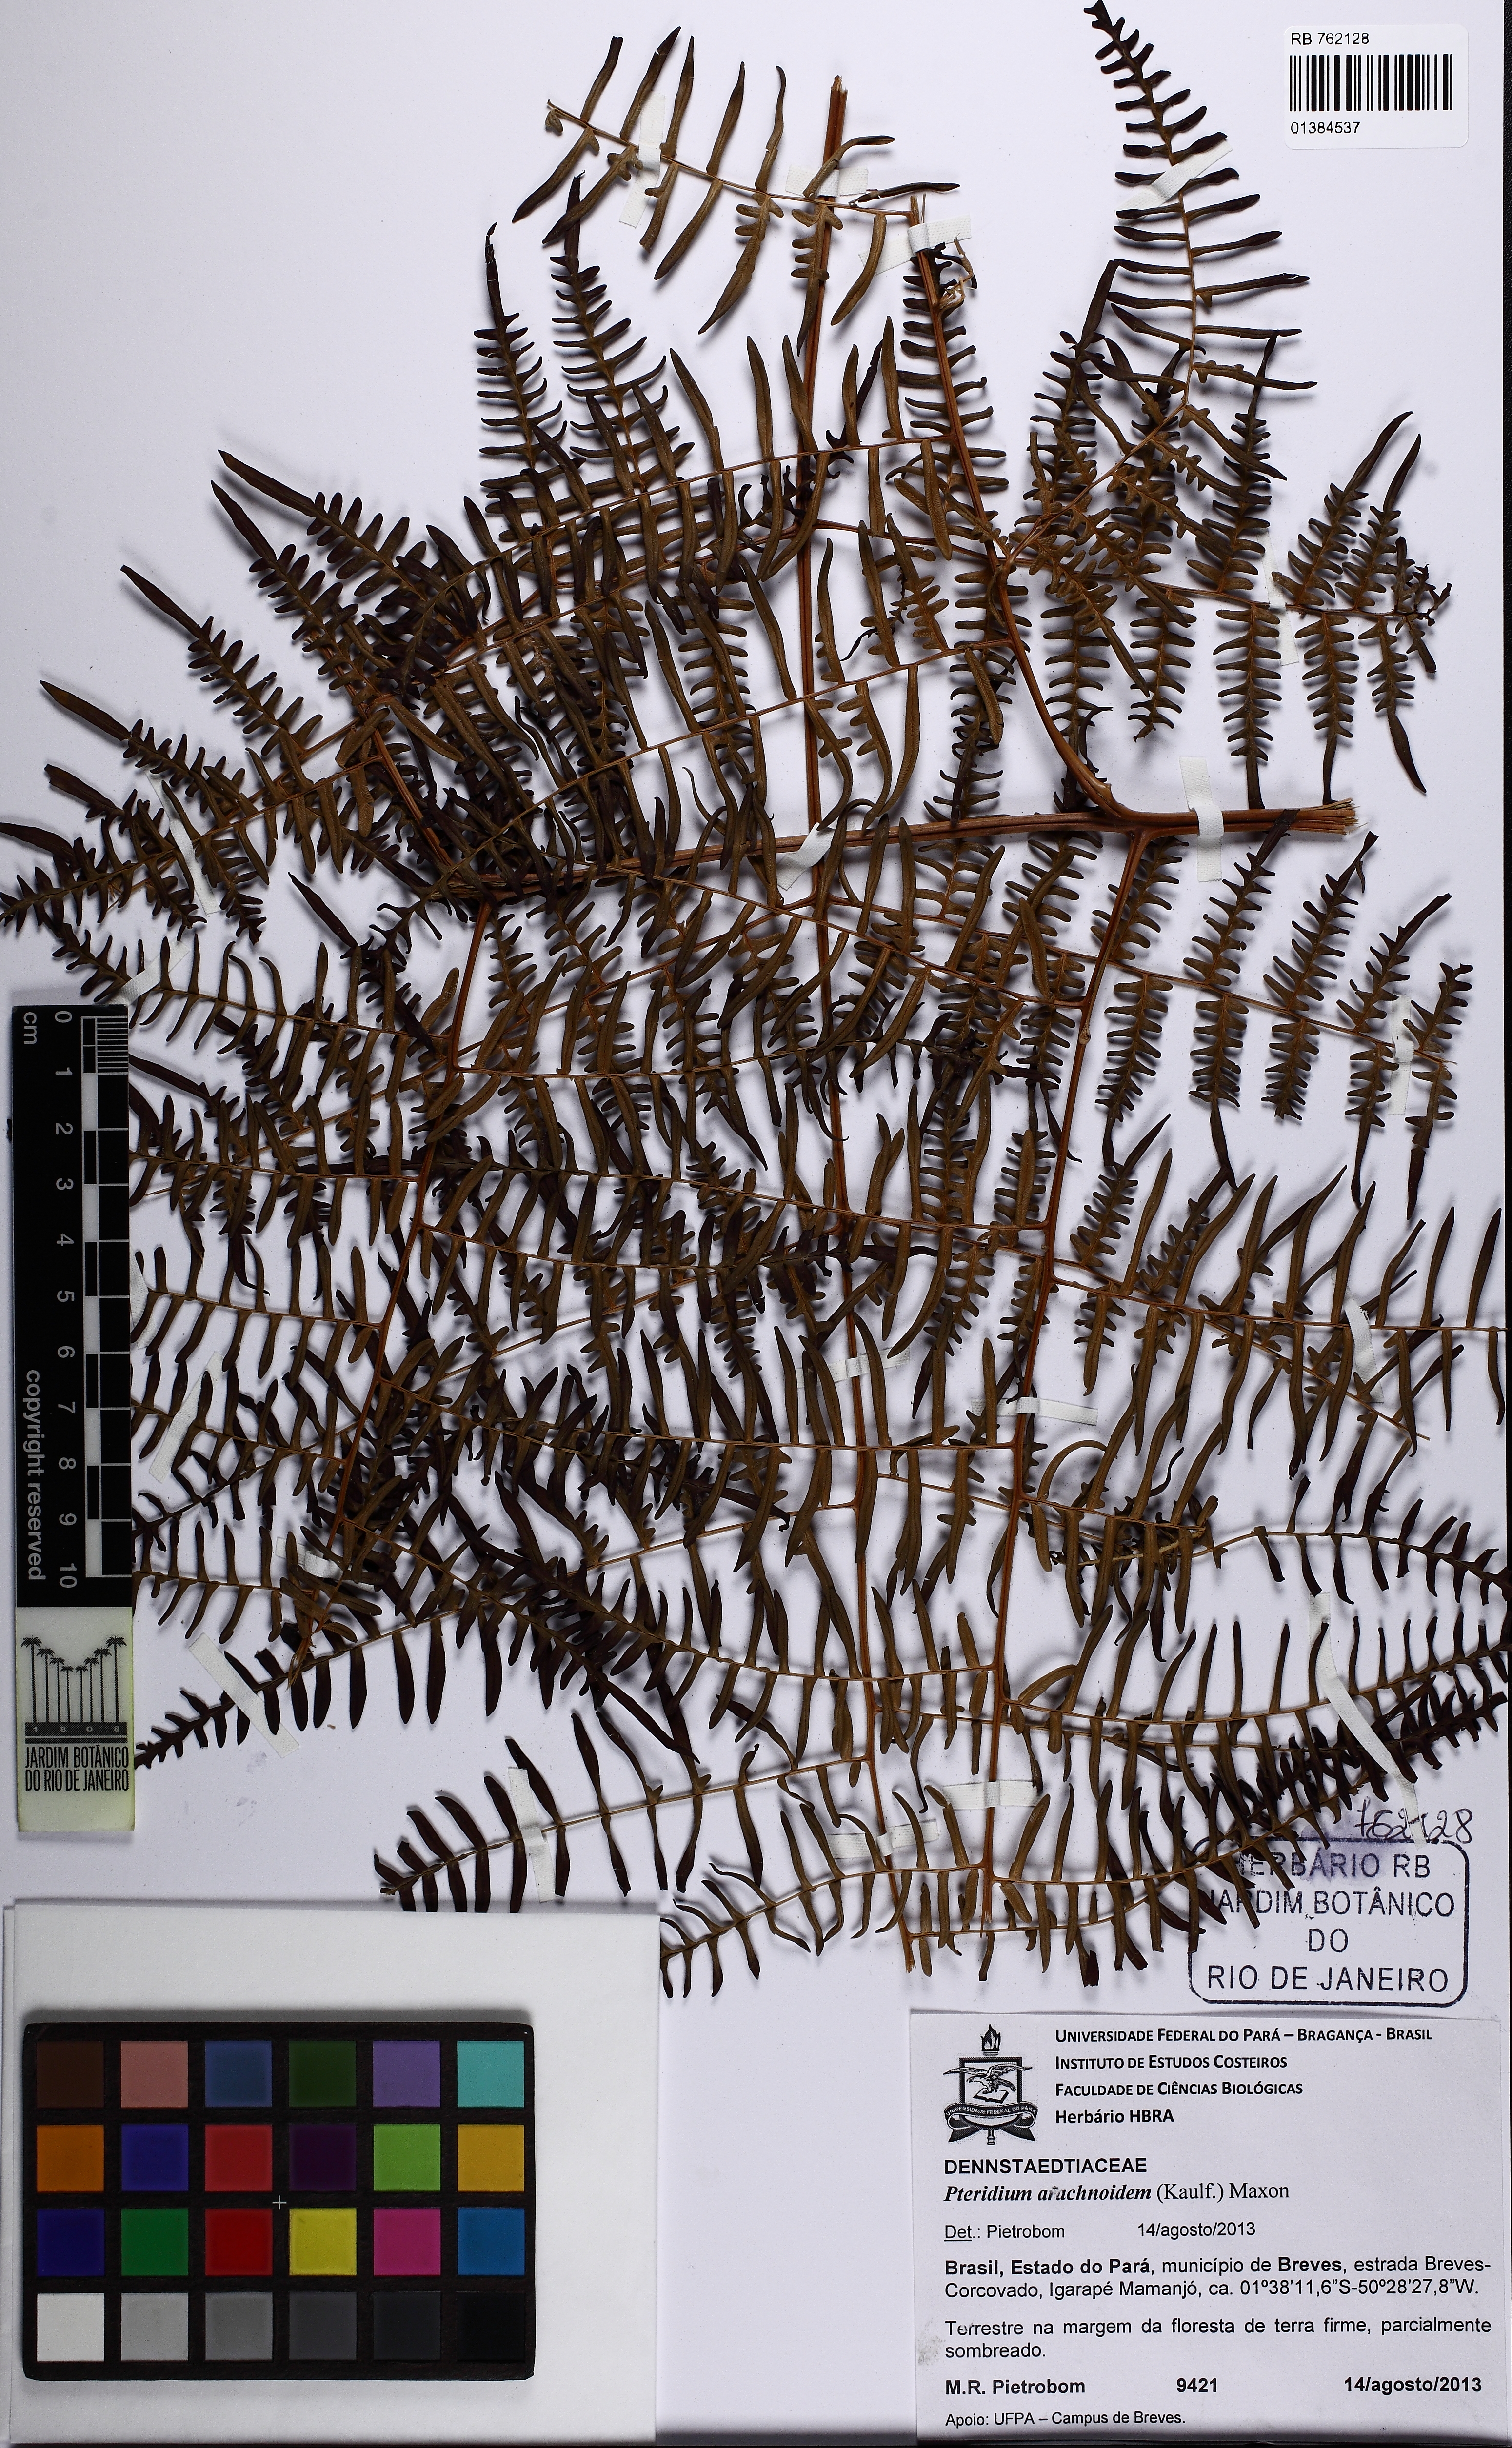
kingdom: Plantae
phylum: Tracheophyta
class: Polypodiopsida
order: Polypodiales
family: Dennstaedtiaceae
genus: Pteridium
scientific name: Pteridium esculentum
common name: Bracken fern
